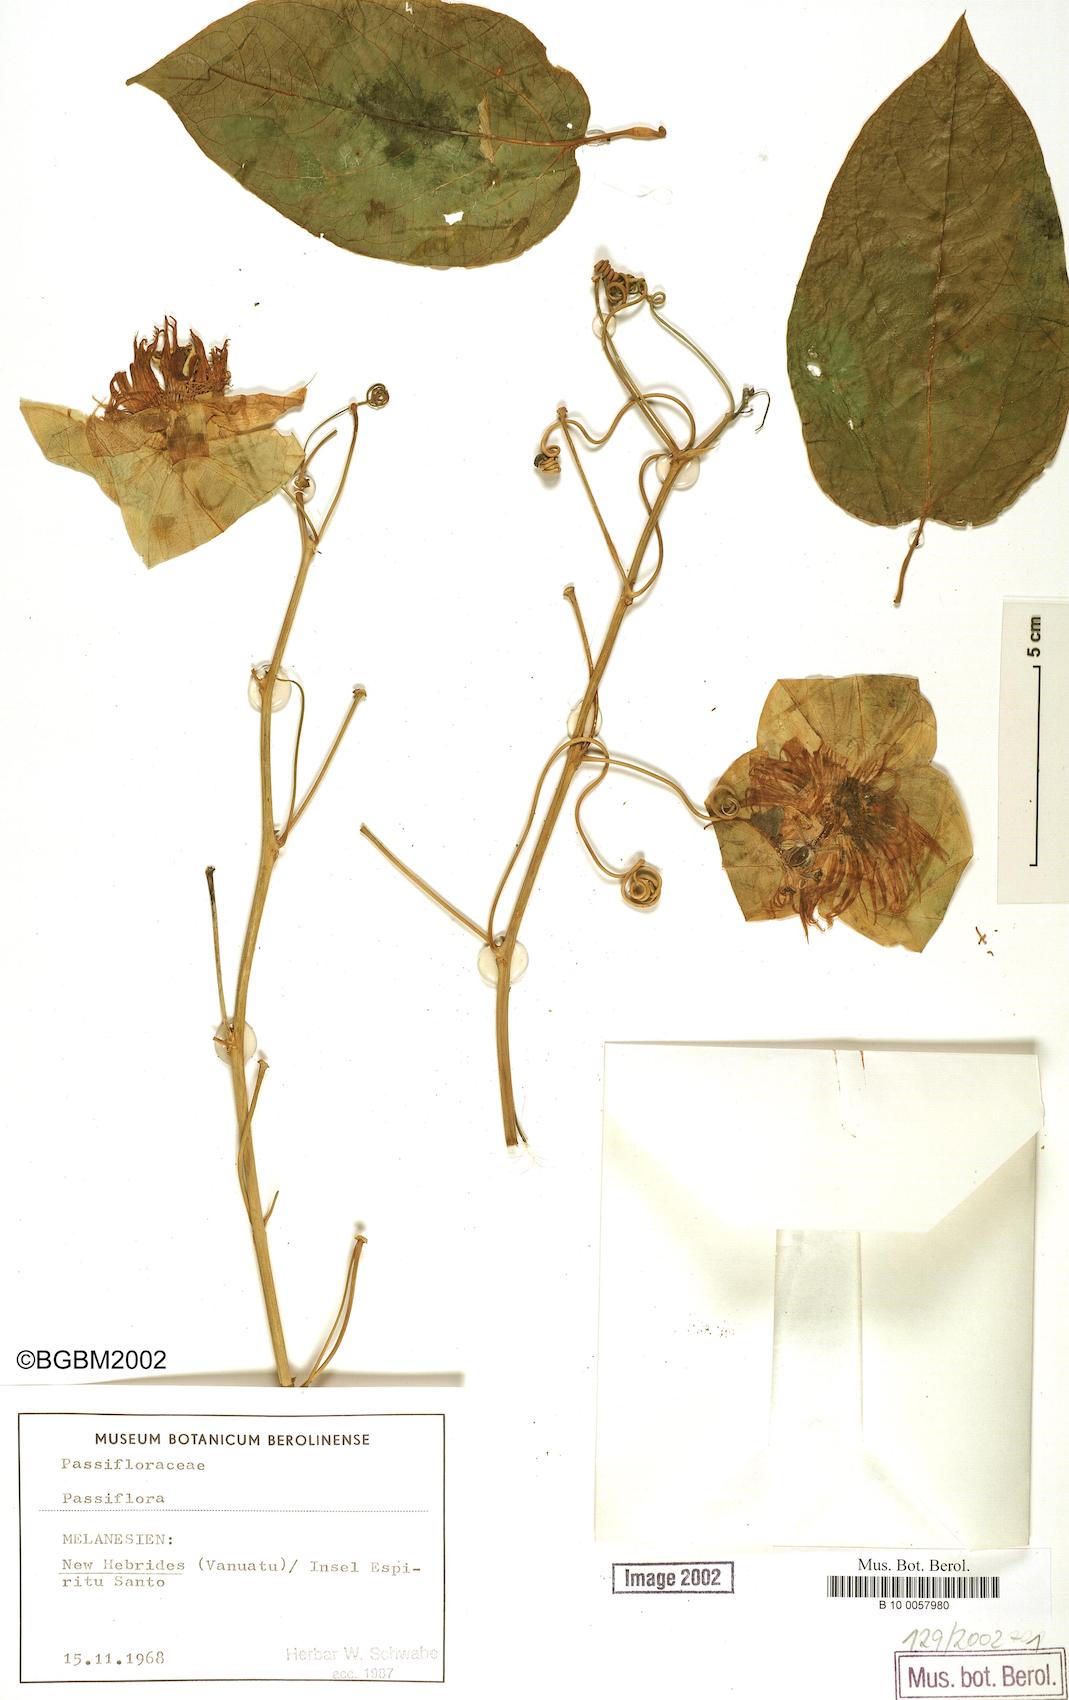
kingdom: Plantae
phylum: Tracheophyta
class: Magnoliopsida
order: Malpighiales
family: Passifloraceae
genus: Passiflora
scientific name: Passiflora
